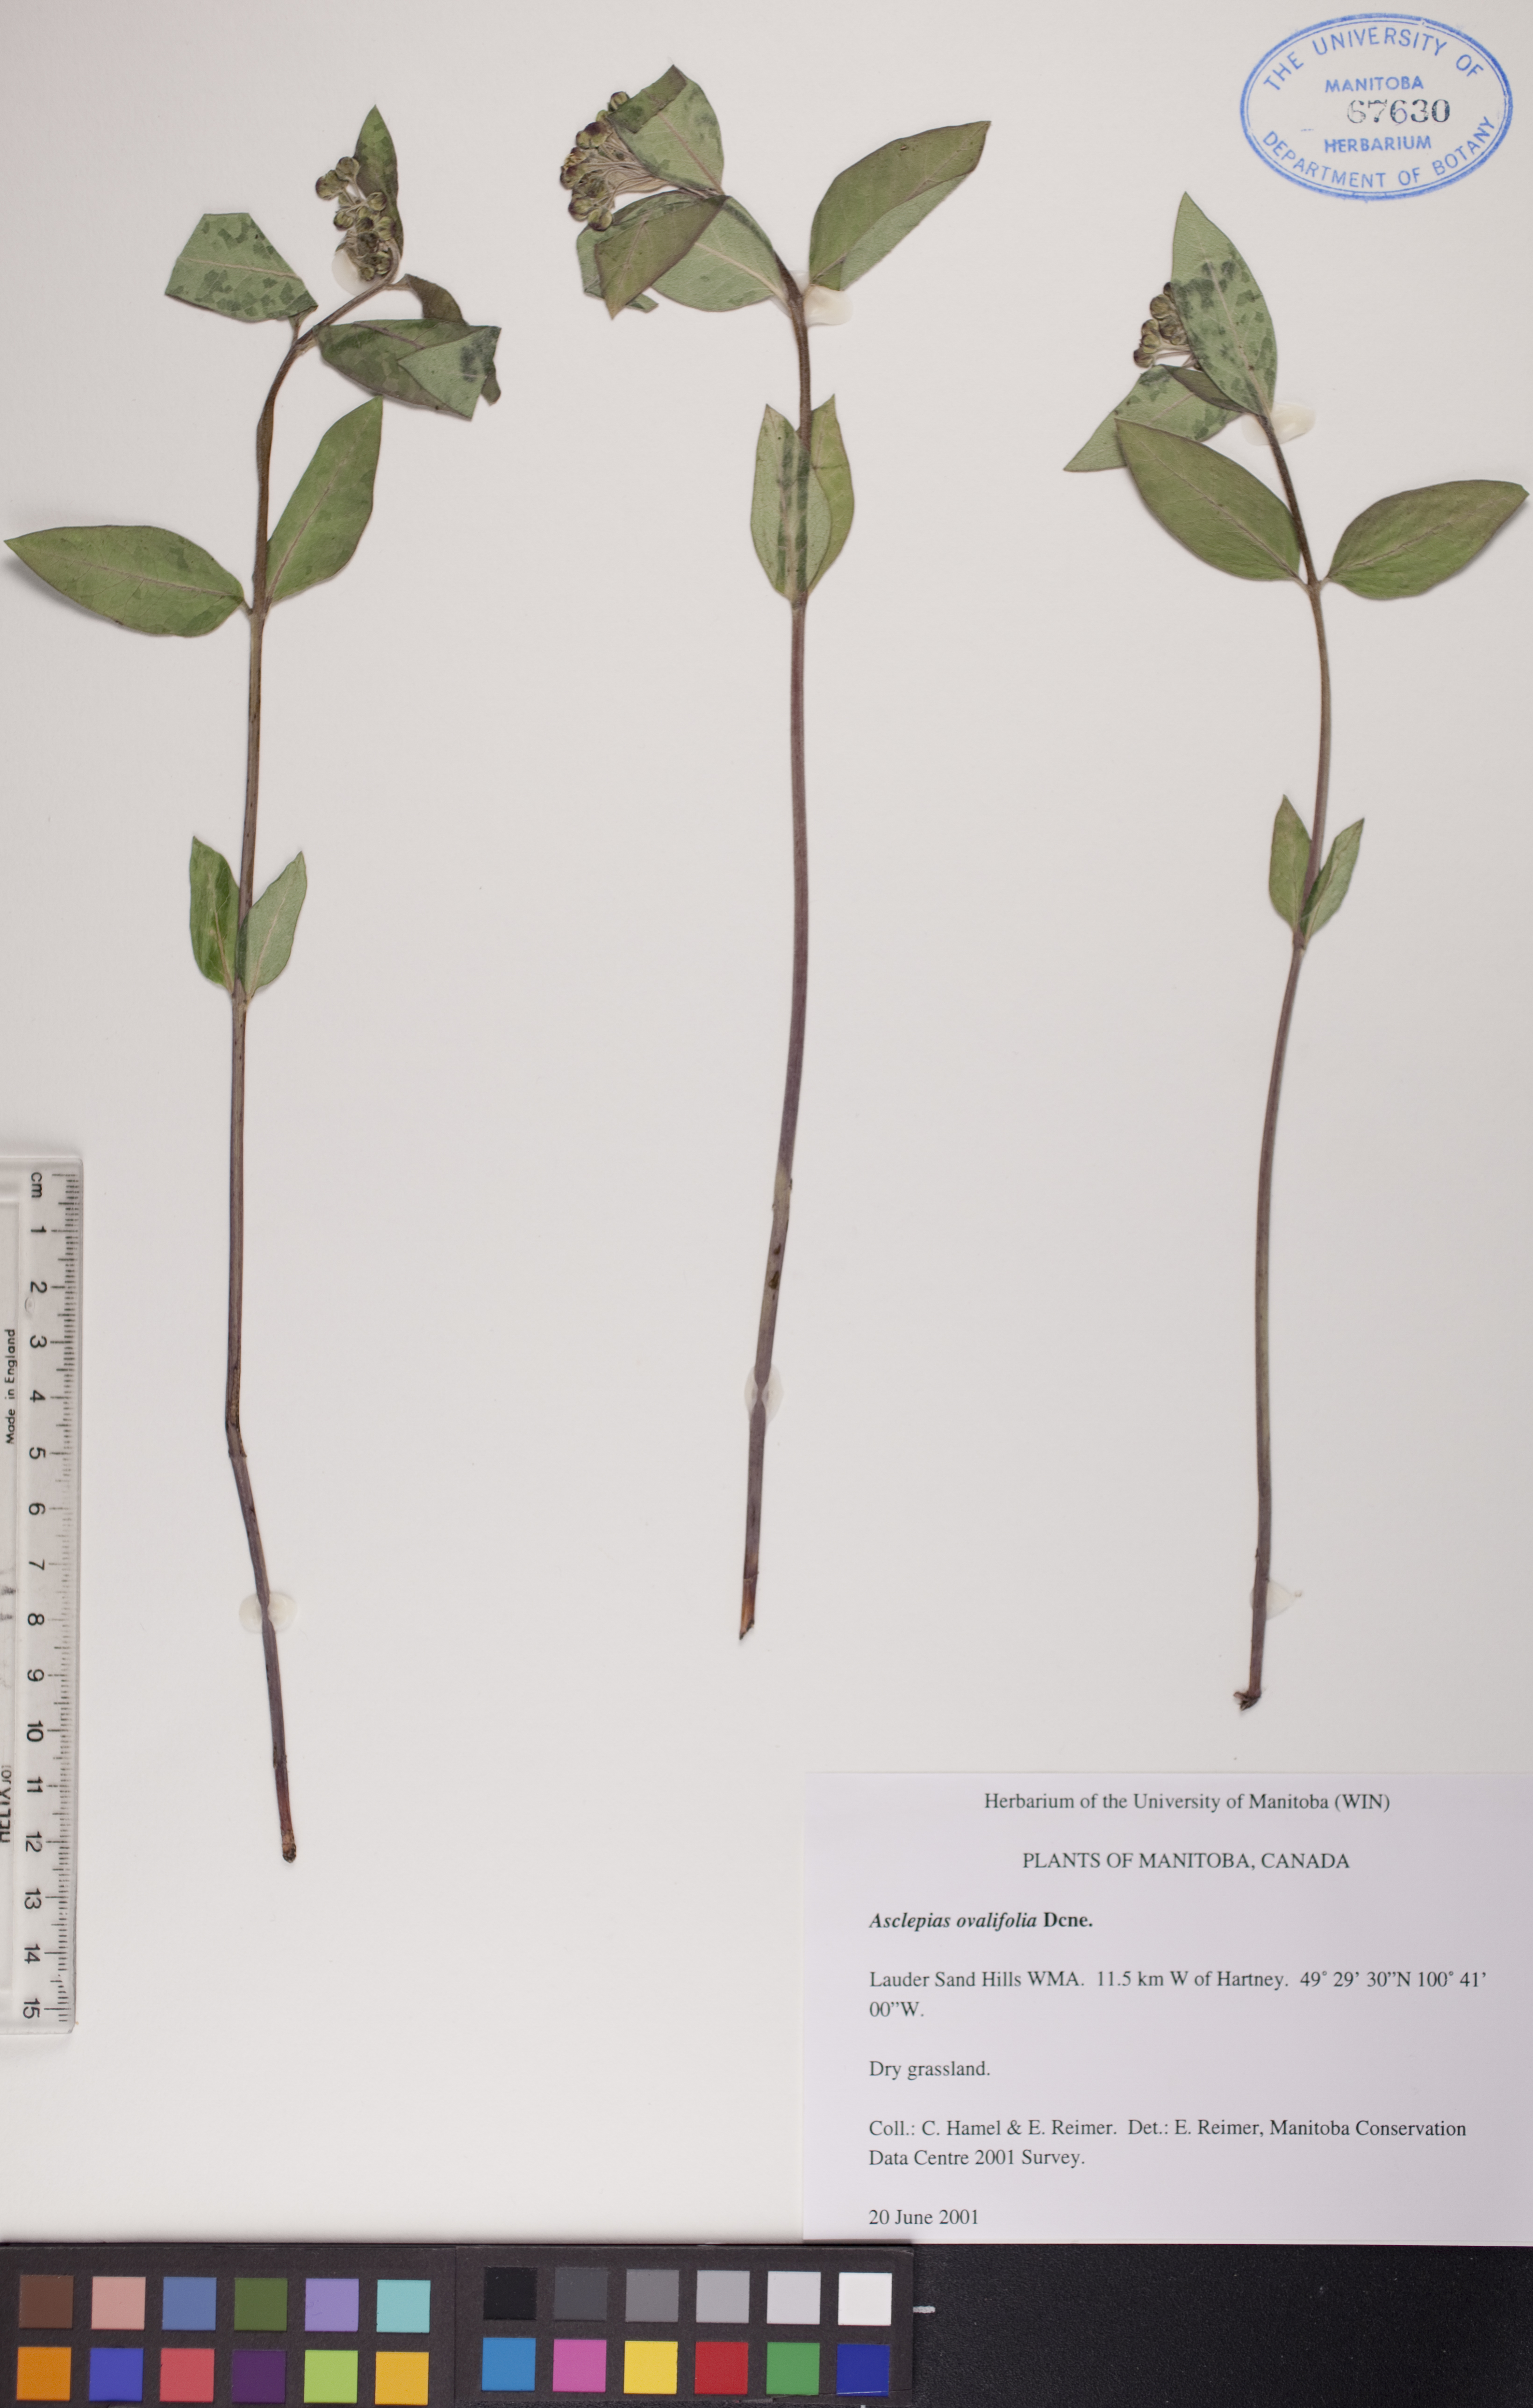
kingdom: Plantae
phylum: Tracheophyta
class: Magnoliopsida
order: Gentianales
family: Apocynaceae
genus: Asclepias
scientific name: Asclepias ovalifolia
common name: Dwarf milkweed
